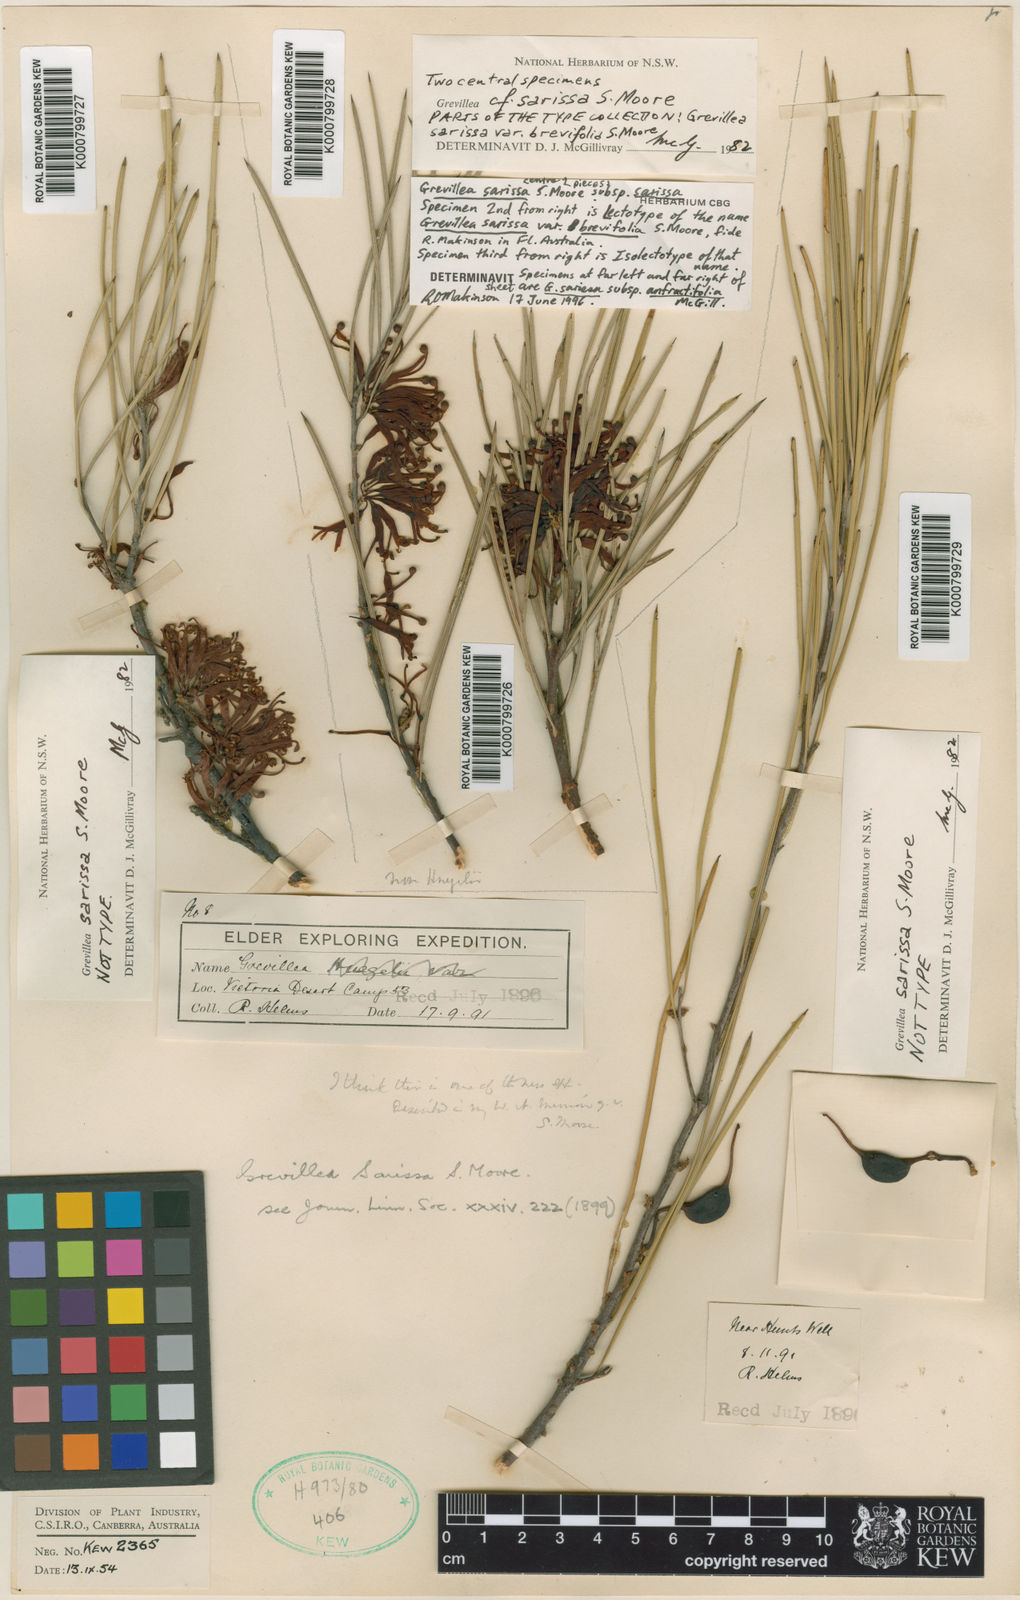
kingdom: Plantae
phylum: Tracheophyta
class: Magnoliopsida
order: Proteales
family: Proteaceae
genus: Grevillea
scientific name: Grevillea sarissa
